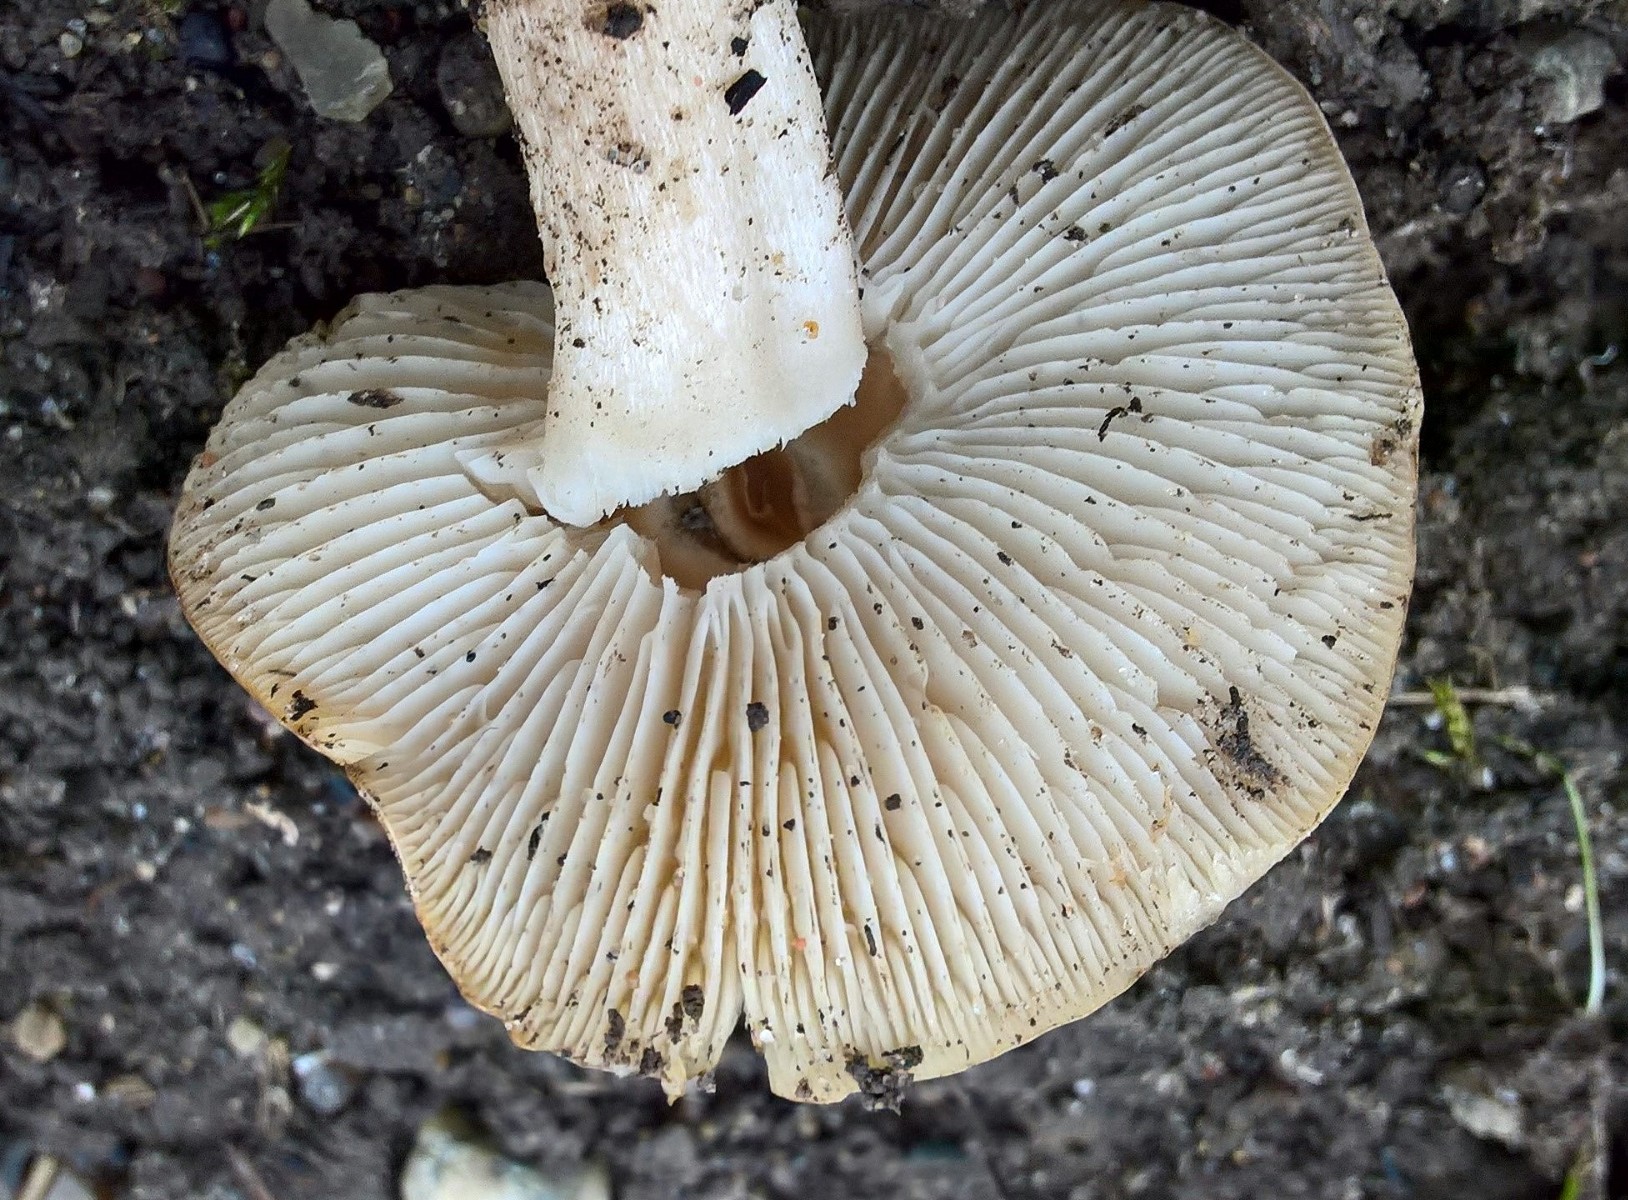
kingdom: Fungi
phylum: Basidiomycota
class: Agaricomycetes
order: Agaricales
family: Tricholomataceae
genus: Tricholoma
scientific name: Tricholoma scalpturatum
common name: gulplettet ridderhat
